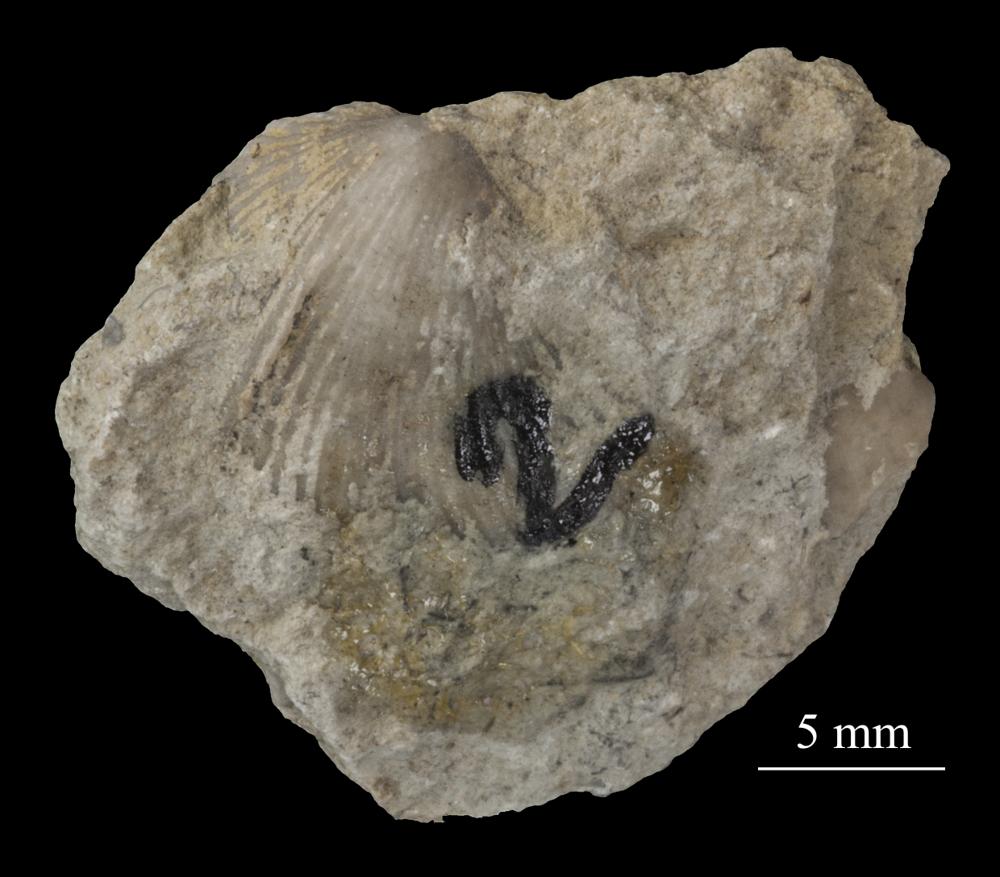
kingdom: Animalia
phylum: Brachiopoda
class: Rhynchonellata
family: Plectorthidae
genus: Platystrophia
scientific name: Platystrophia dentata
